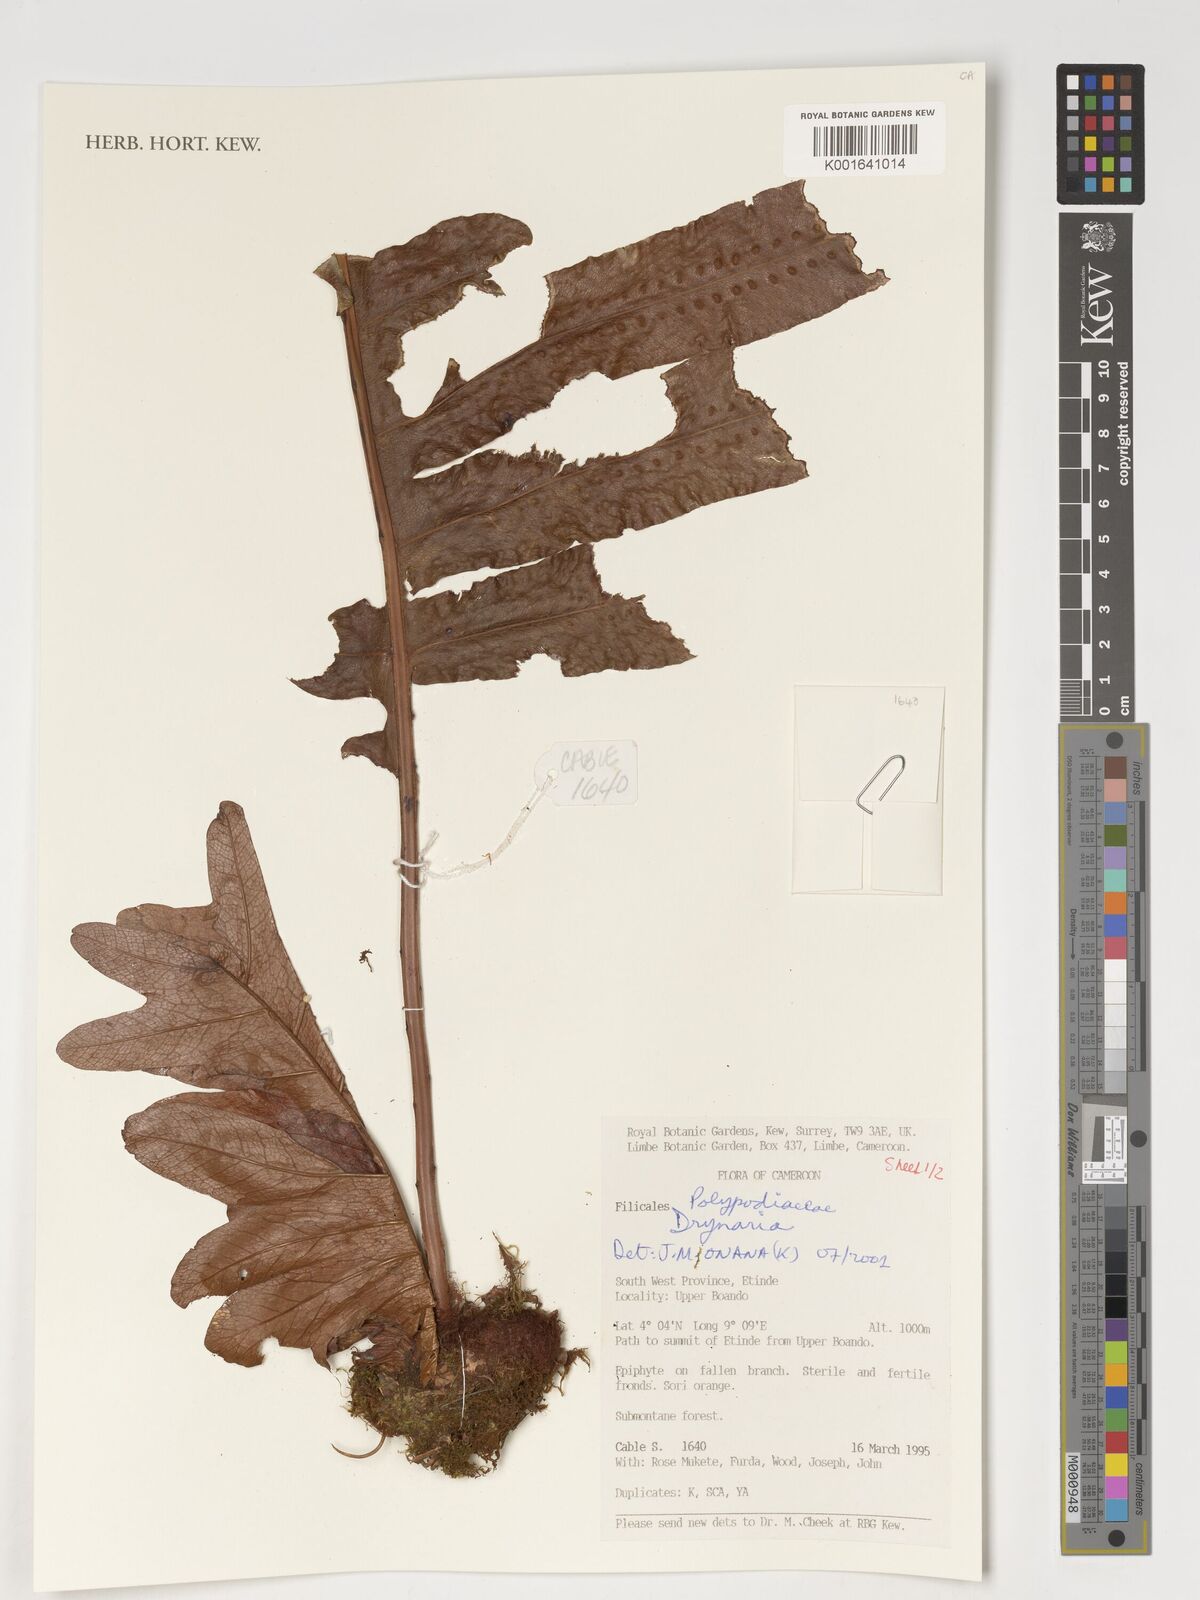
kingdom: Plantae
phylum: Tracheophyta
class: Polypodiopsida
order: Polypodiales
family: Polypodiaceae
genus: Drynaria
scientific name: Drynaria
